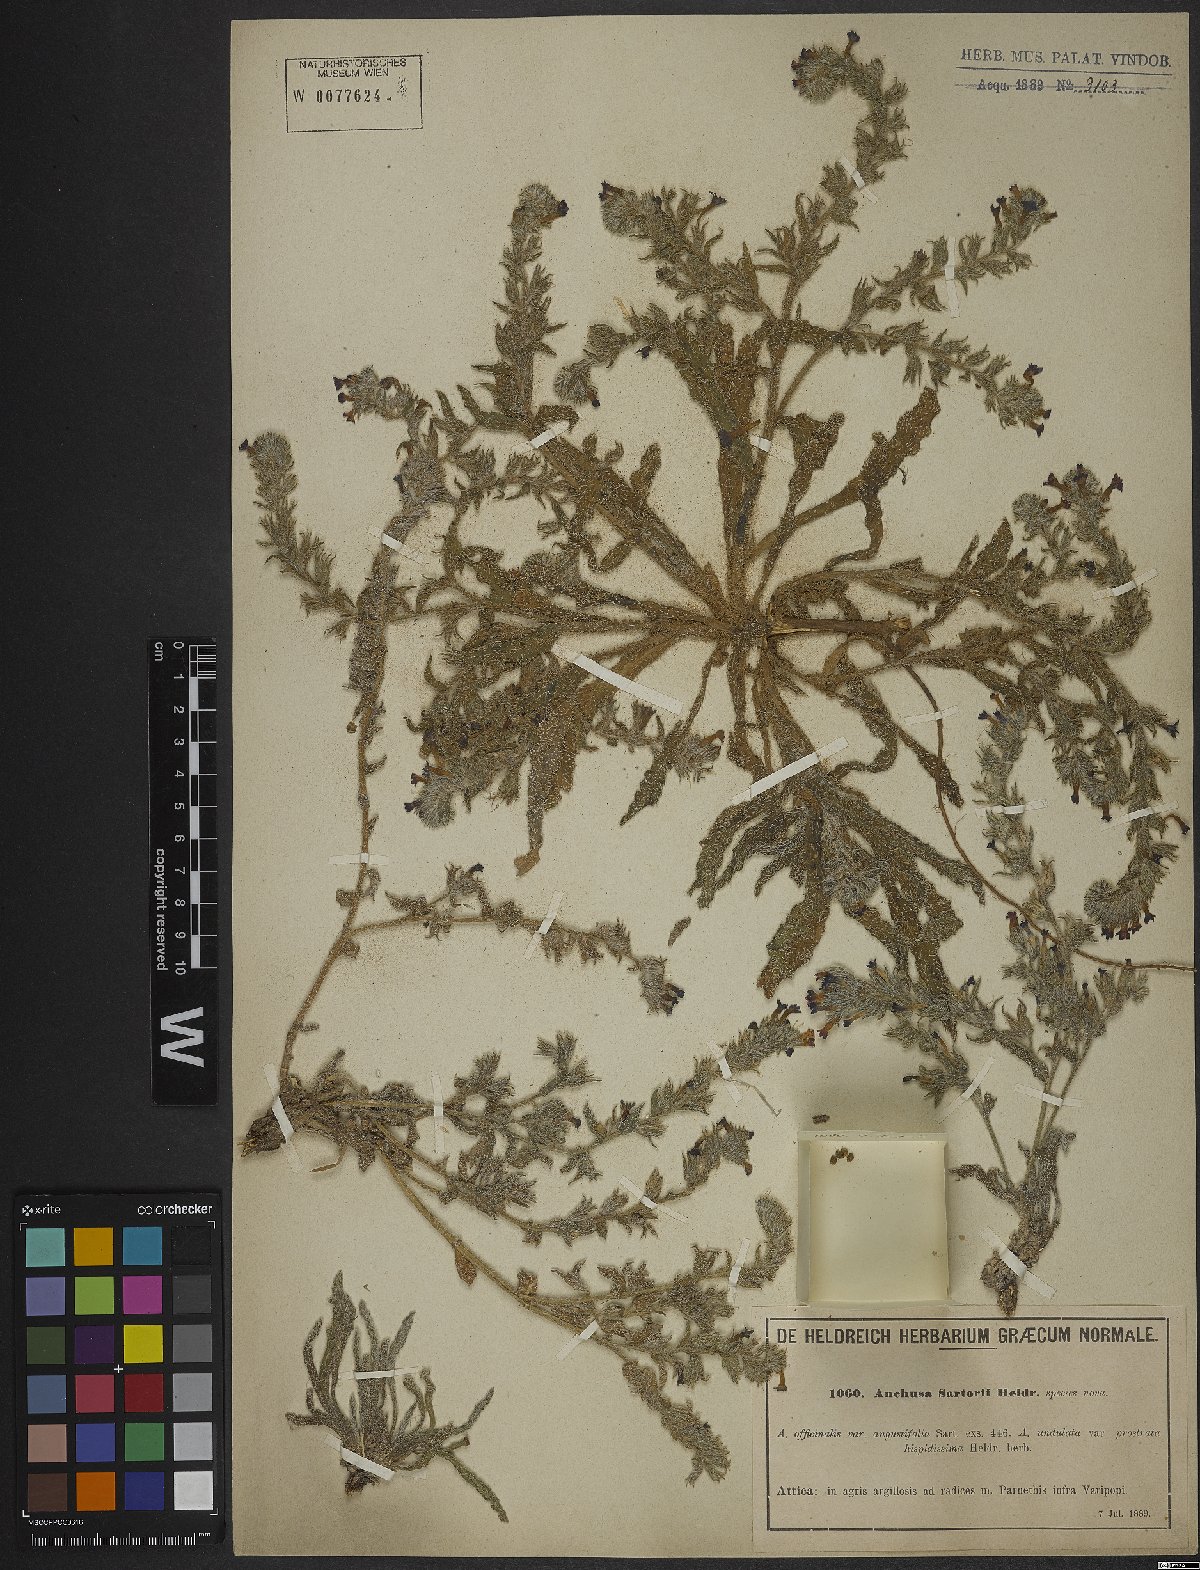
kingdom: Plantae
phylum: Tracheophyta
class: Magnoliopsida
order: Boraginales
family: Boraginaceae
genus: Anchusa
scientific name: Anchusa undulata
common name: Undulate alkanet
